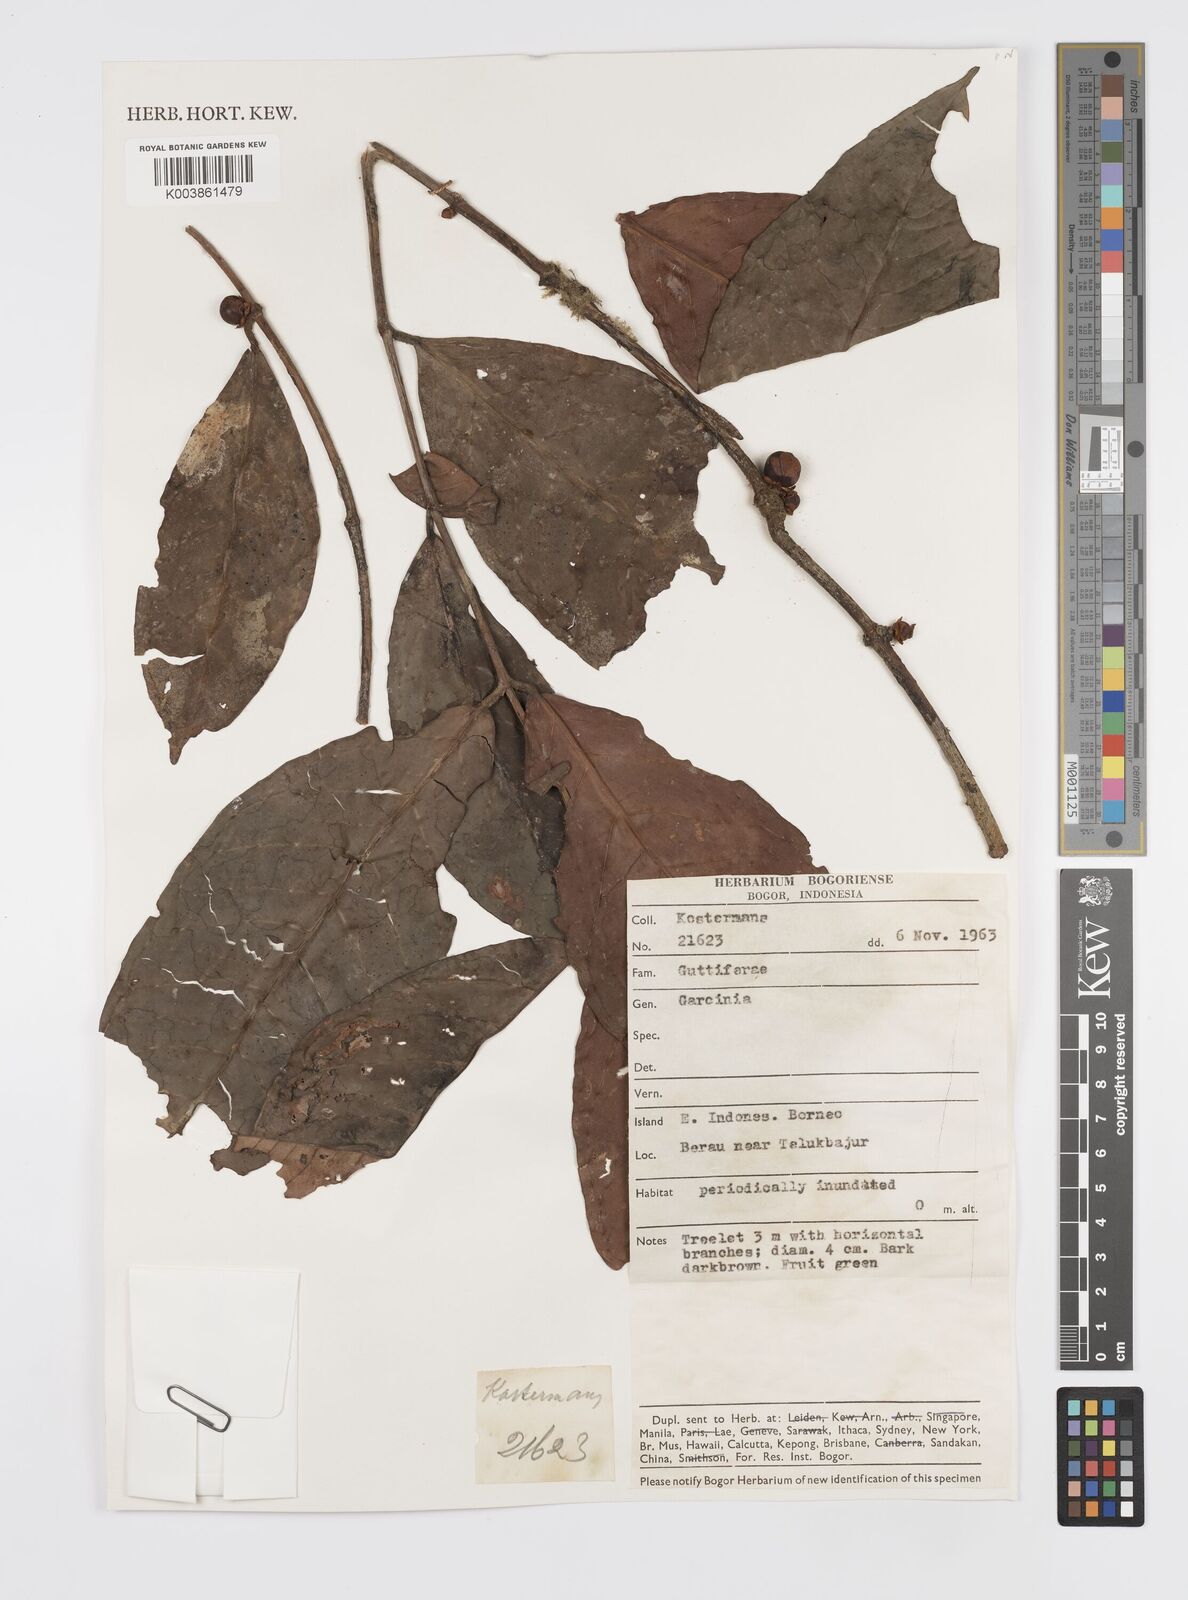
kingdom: Plantae
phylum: Tracheophyta
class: Magnoliopsida
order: Malpighiales
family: Clusiaceae
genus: Garcinia
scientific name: Garcinia
